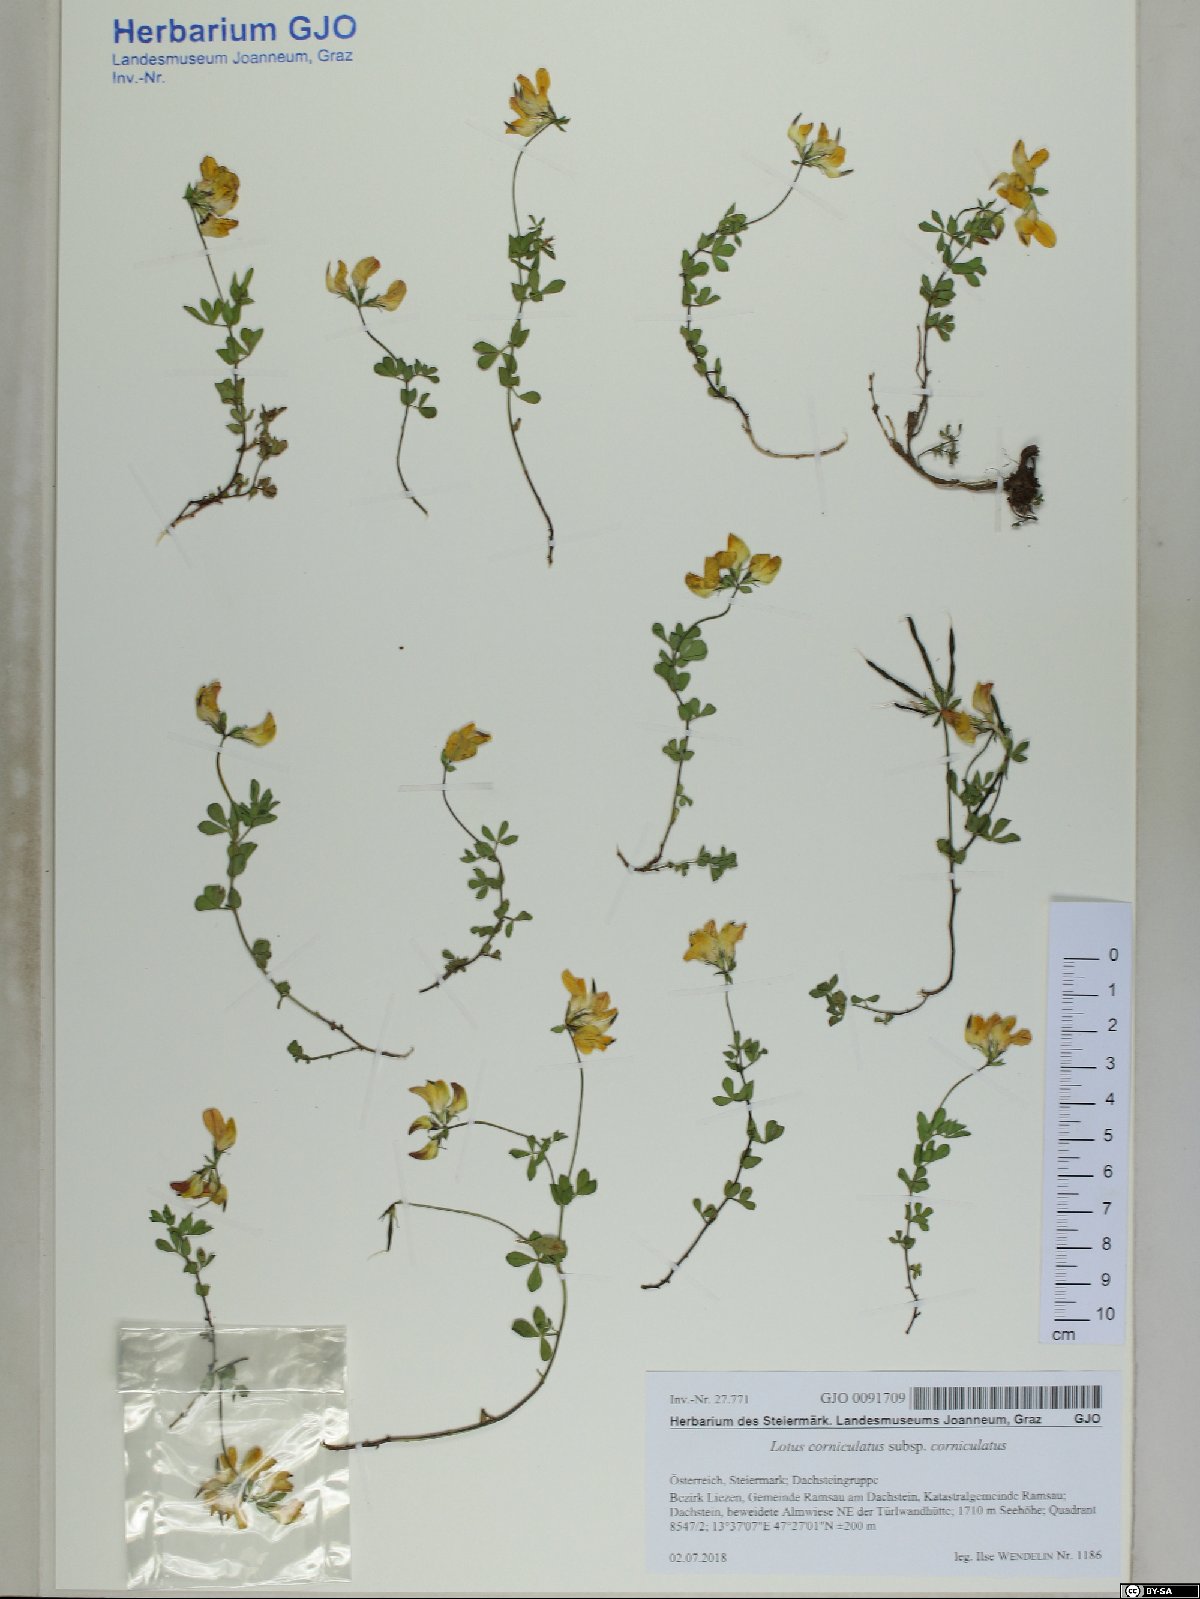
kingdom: Plantae
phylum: Tracheophyta
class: Magnoliopsida
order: Fabales
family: Fabaceae
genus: Lotus
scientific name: Lotus corniculatus
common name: Common bird's-foot-trefoil
